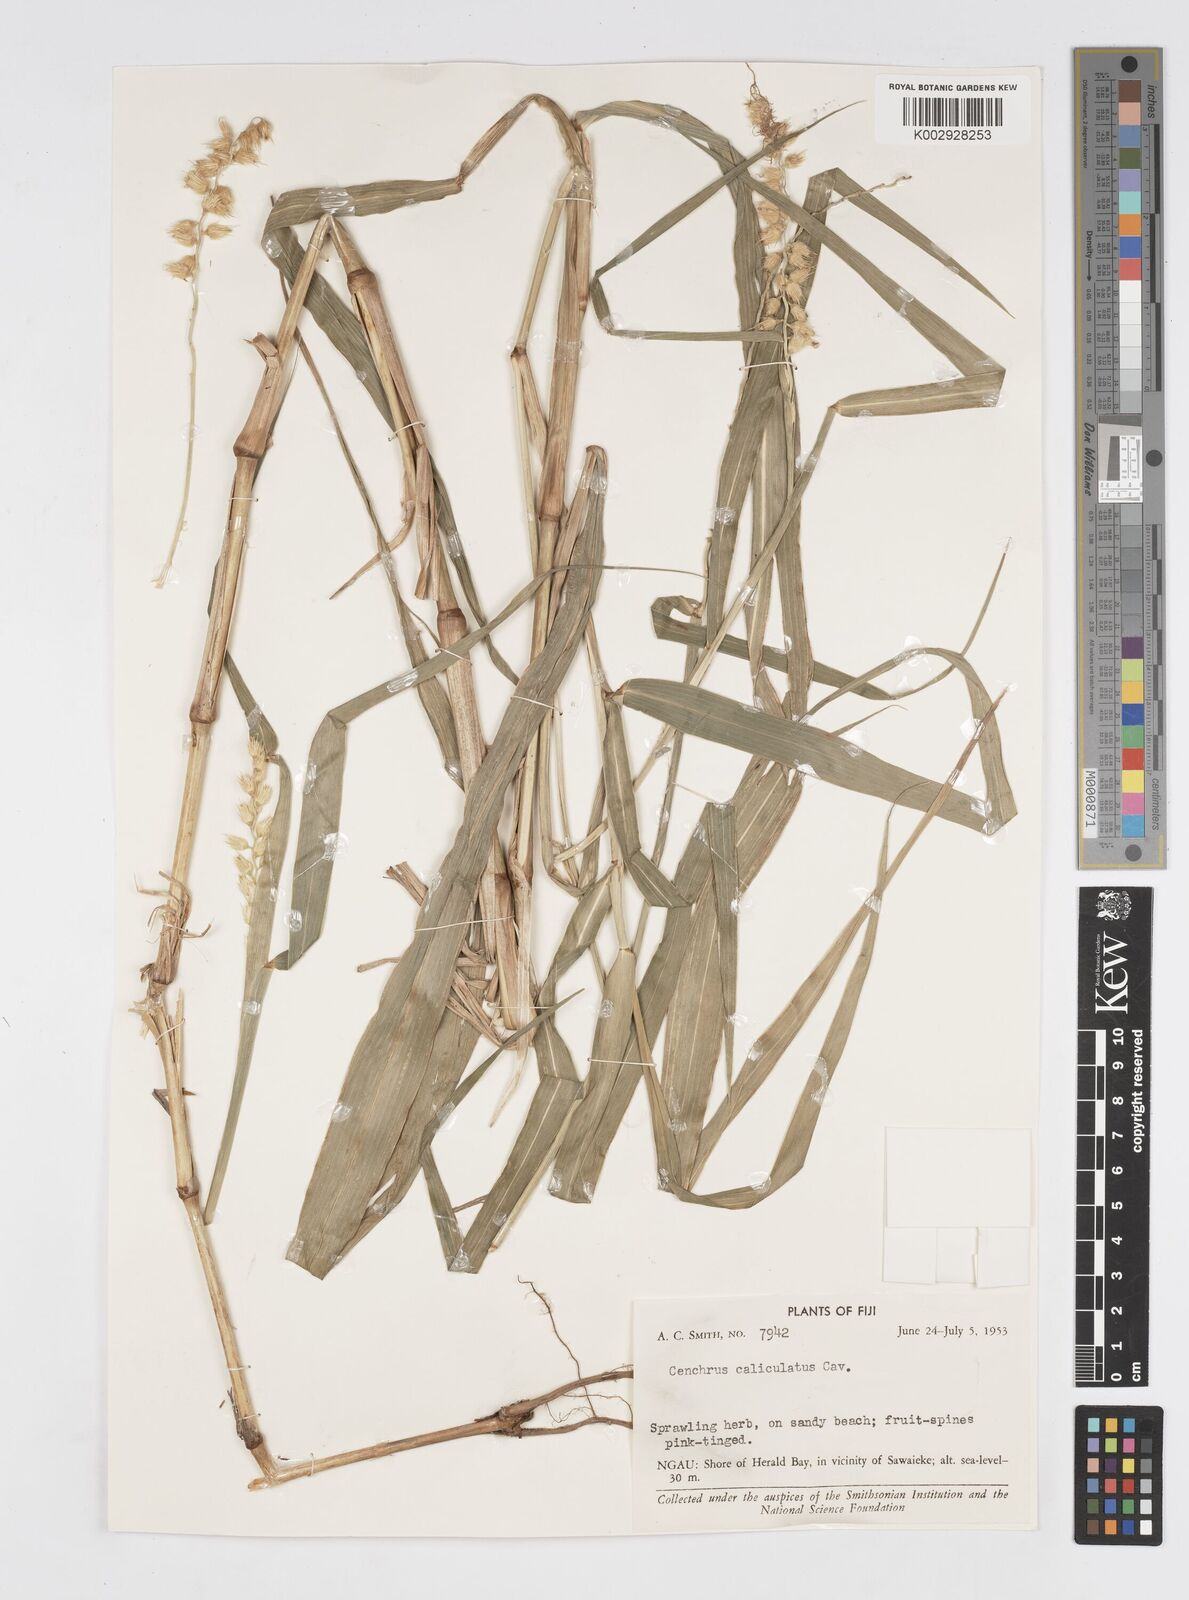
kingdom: Plantae
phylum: Tracheophyta
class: Liliopsida
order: Poales
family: Poaceae
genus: Cenchrus
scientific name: Cenchrus caliculatus
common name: Large bur grass
